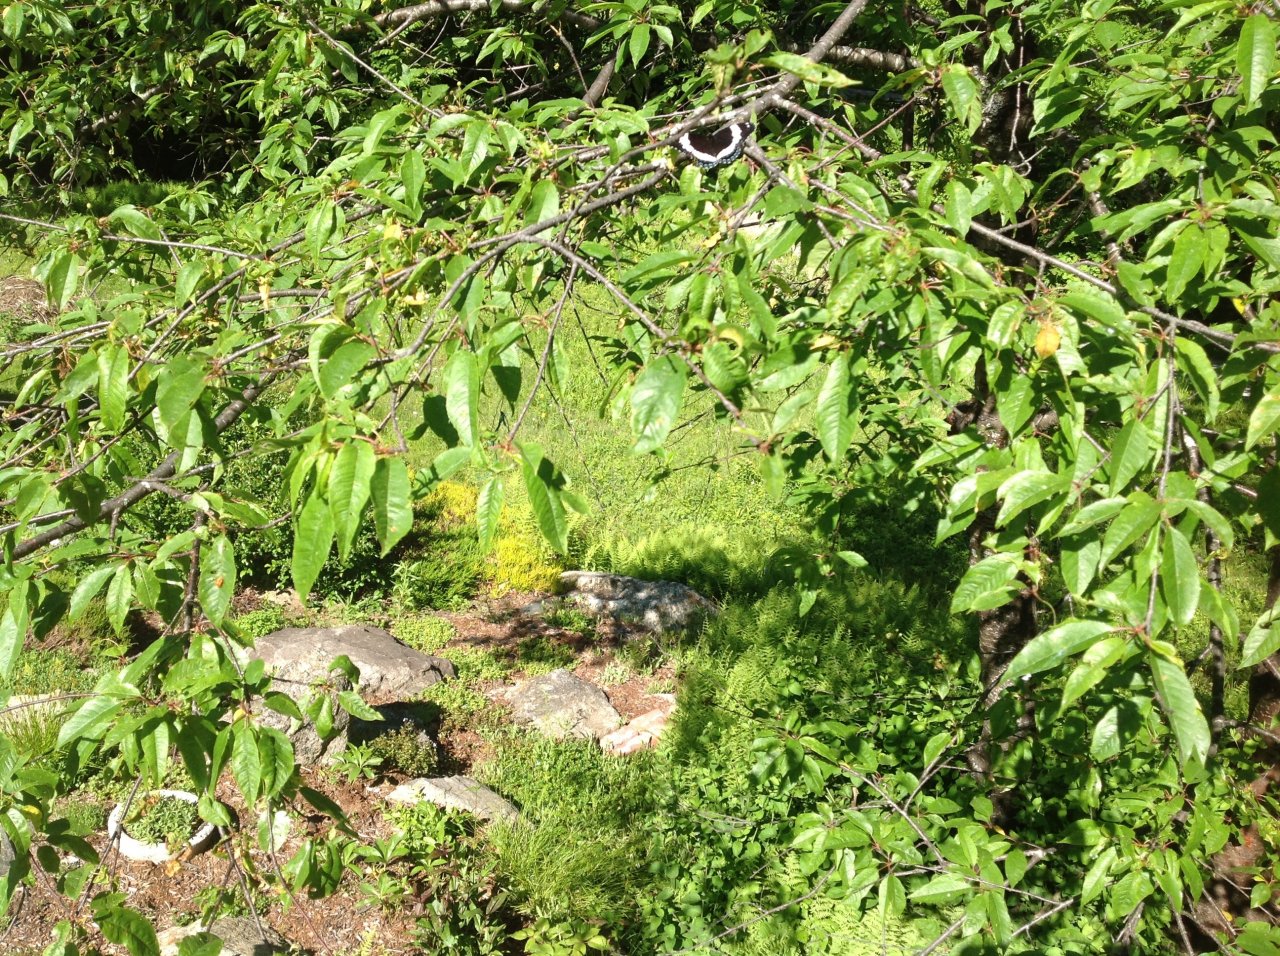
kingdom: Animalia
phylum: Arthropoda
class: Insecta
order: Lepidoptera
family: Nymphalidae
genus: Limenitis
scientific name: Limenitis arthemis
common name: Red-spotted Admiral
